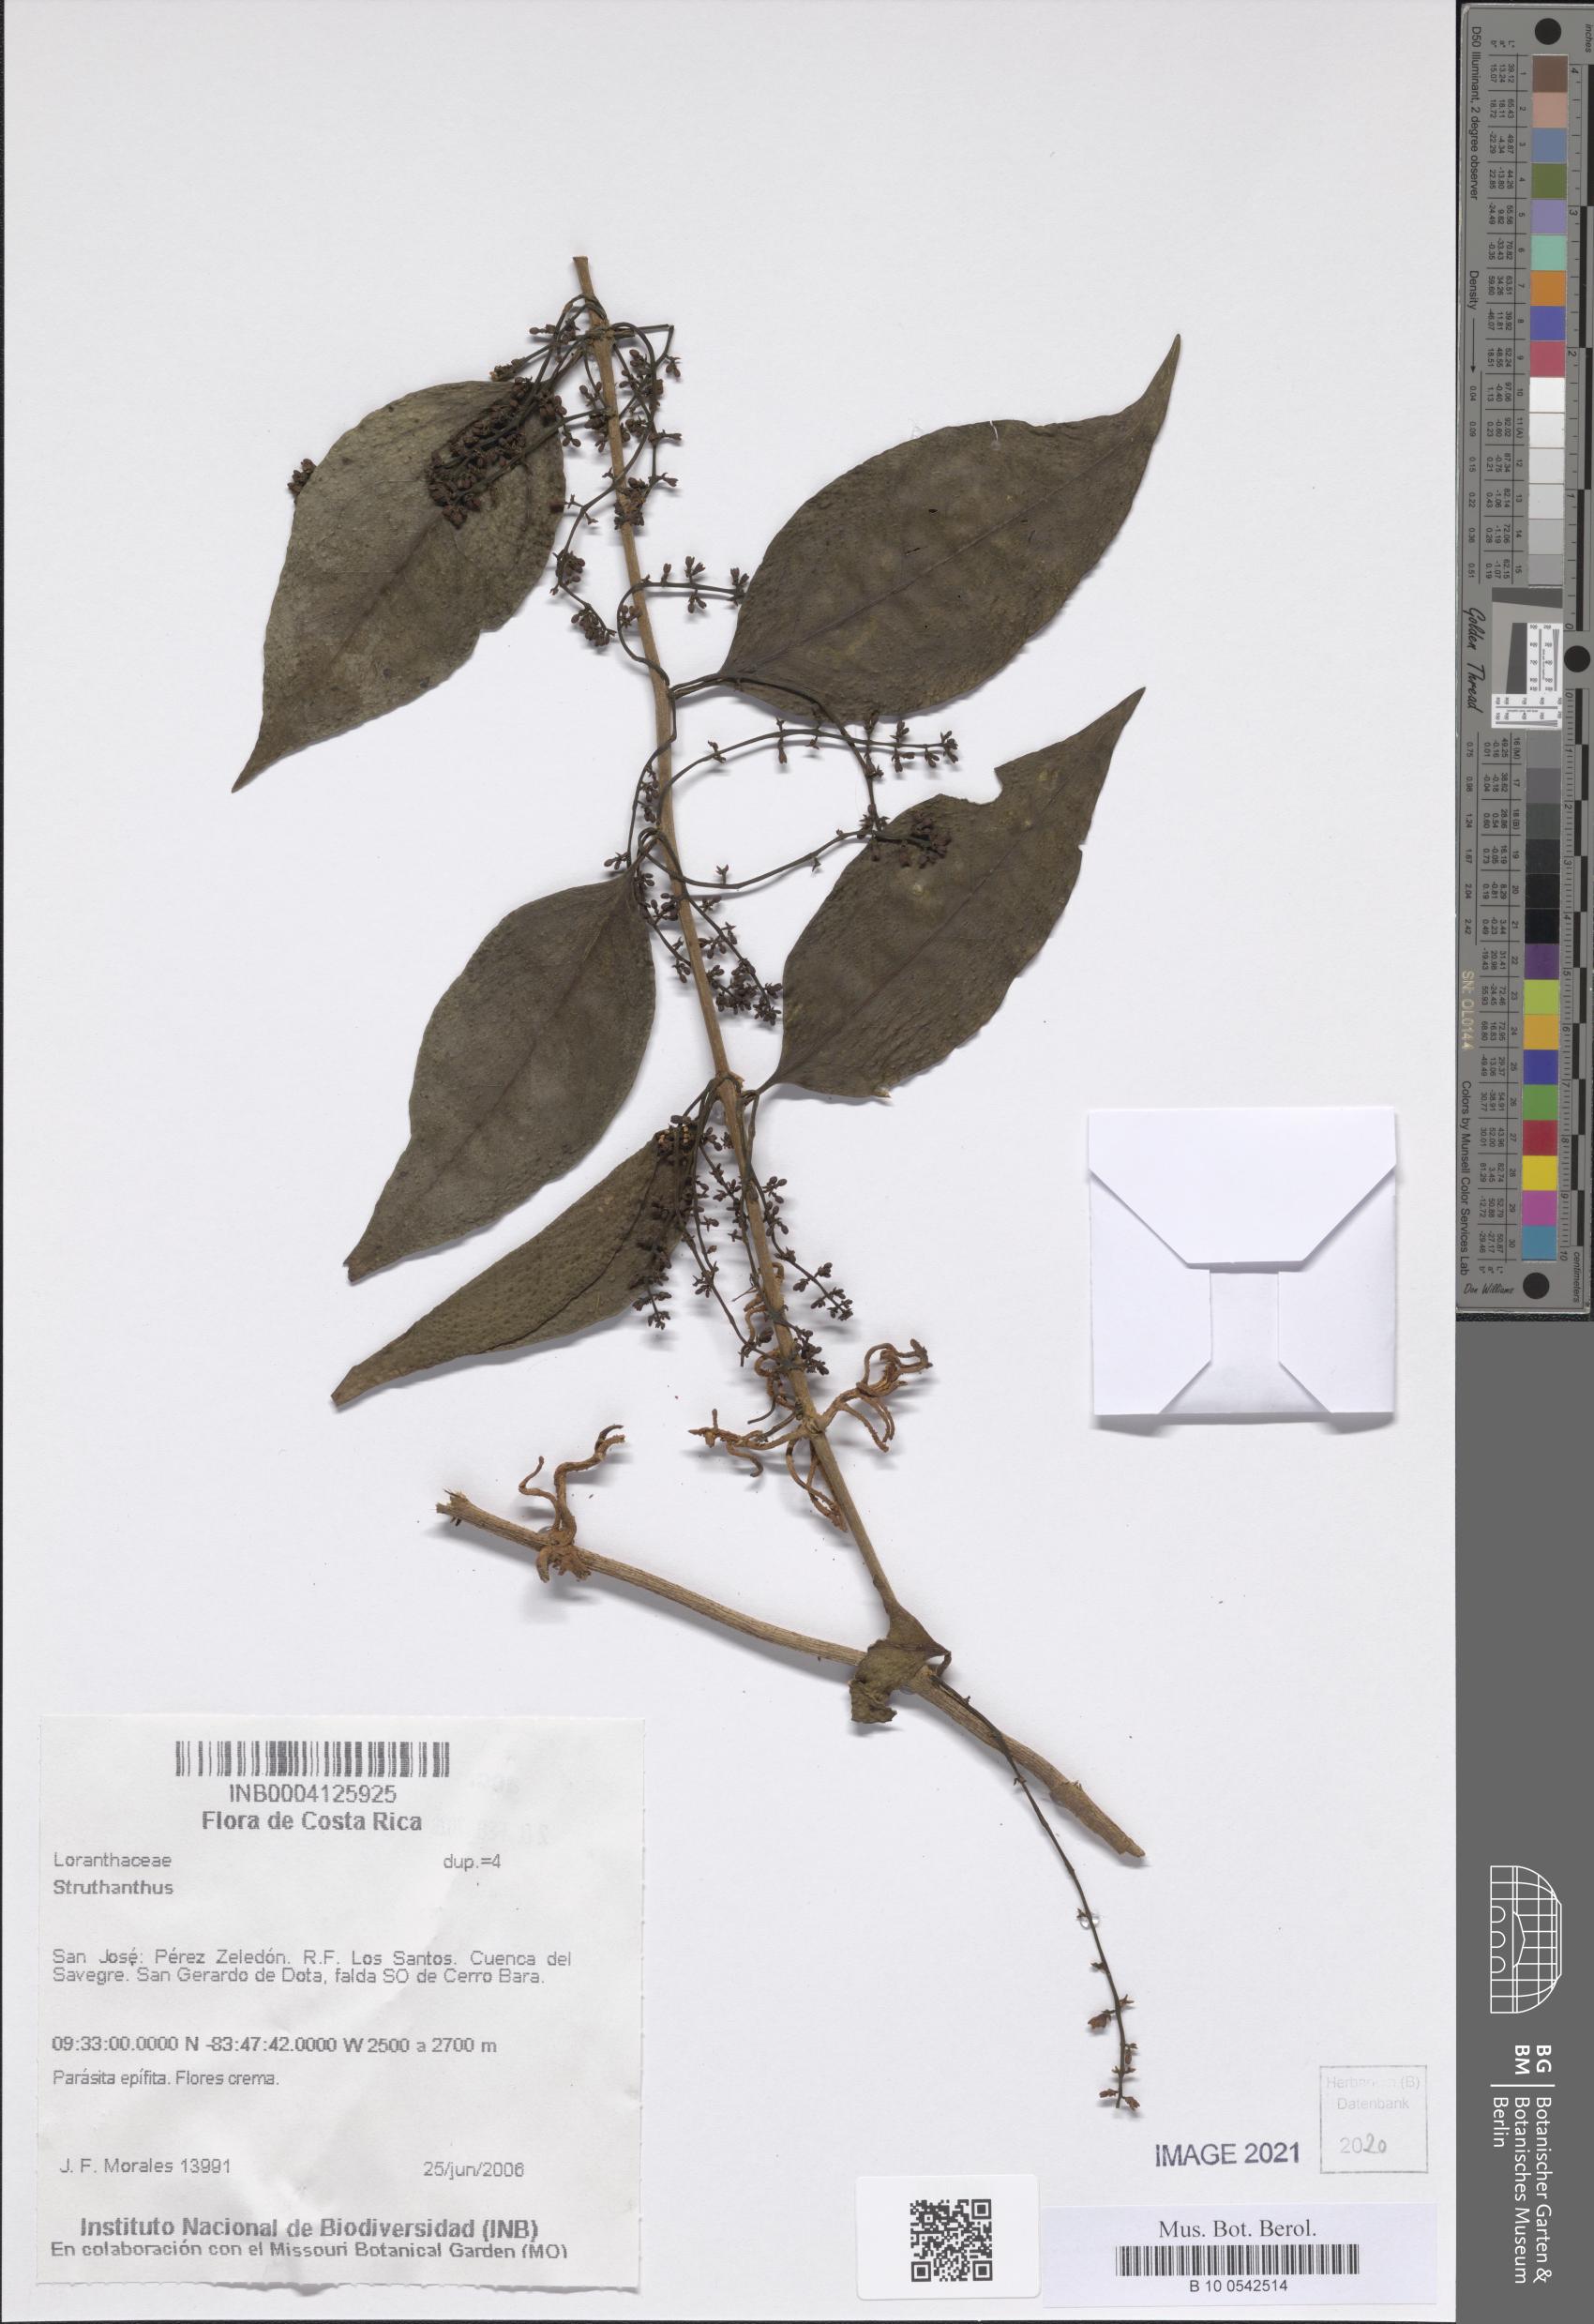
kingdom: Plantae
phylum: Tracheophyta
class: Magnoliopsida
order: Santalales
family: Loranthaceae
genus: Struthanthus
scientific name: Struthanthus
